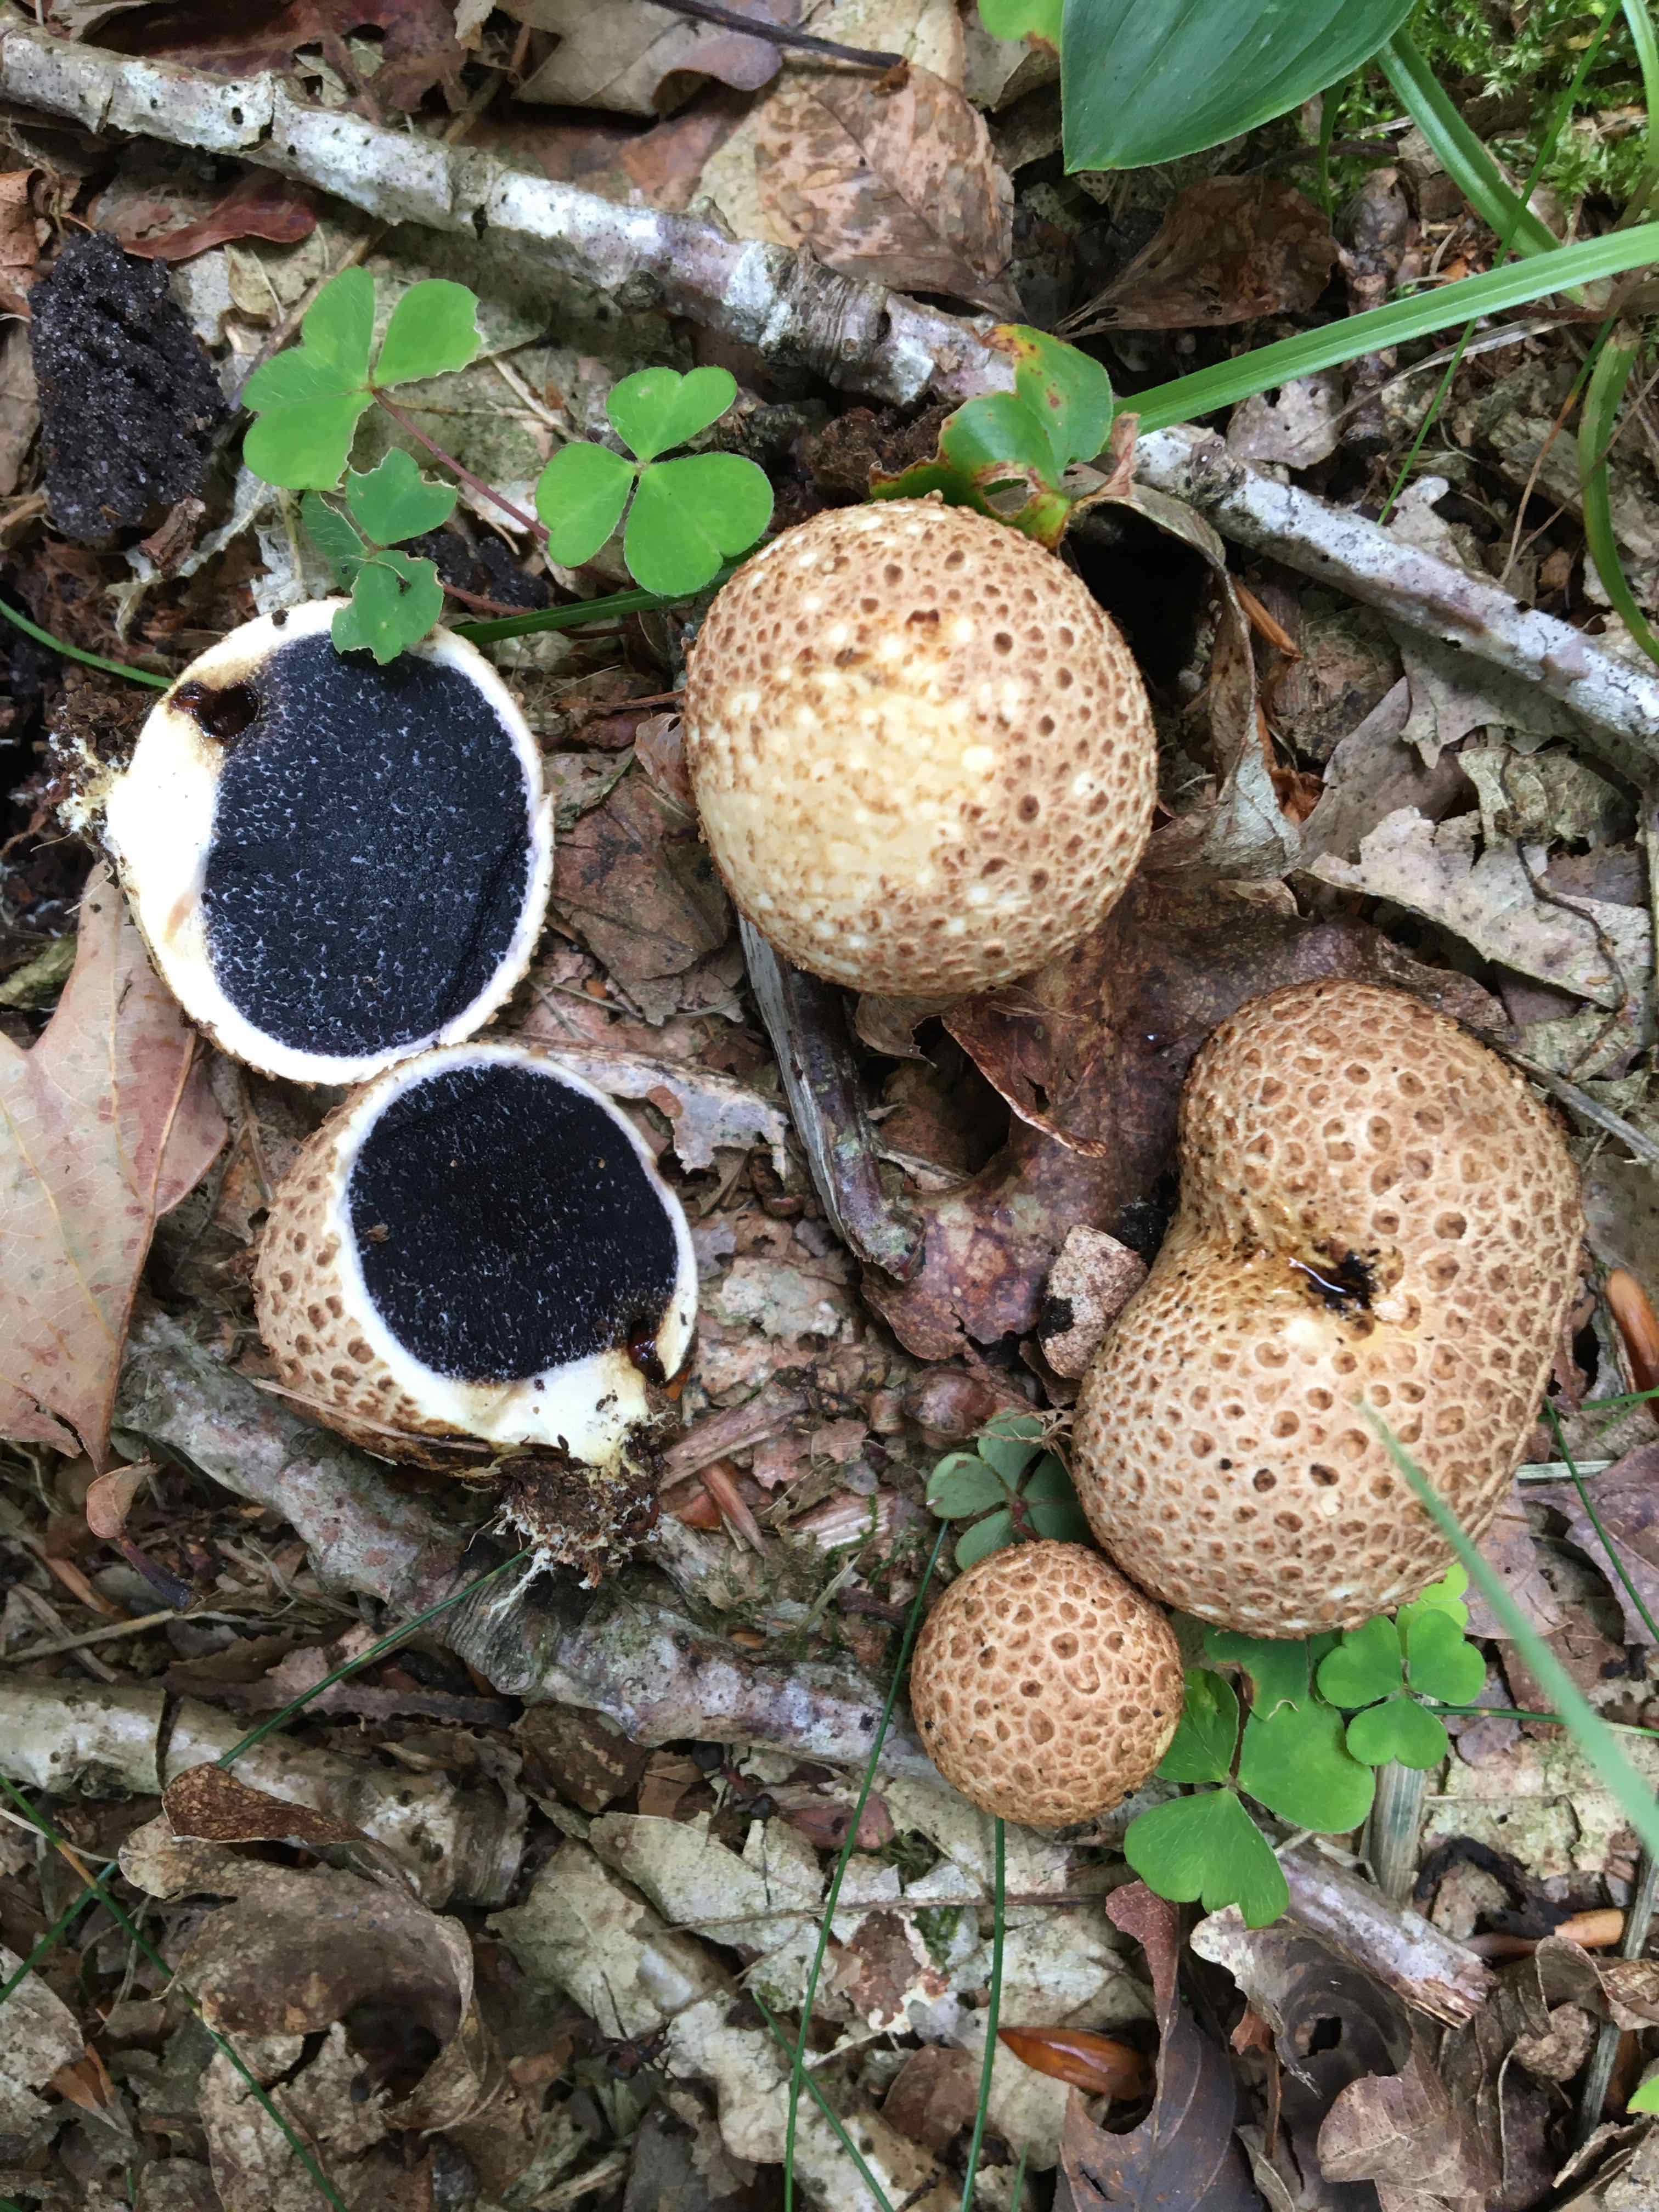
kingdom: Fungi
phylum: Basidiomycota
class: Agaricomycetes
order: Boletales
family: Sclerodermataceae
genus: Scleroderma
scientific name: Scleroderma citrinum
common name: almindelig bruskbold
